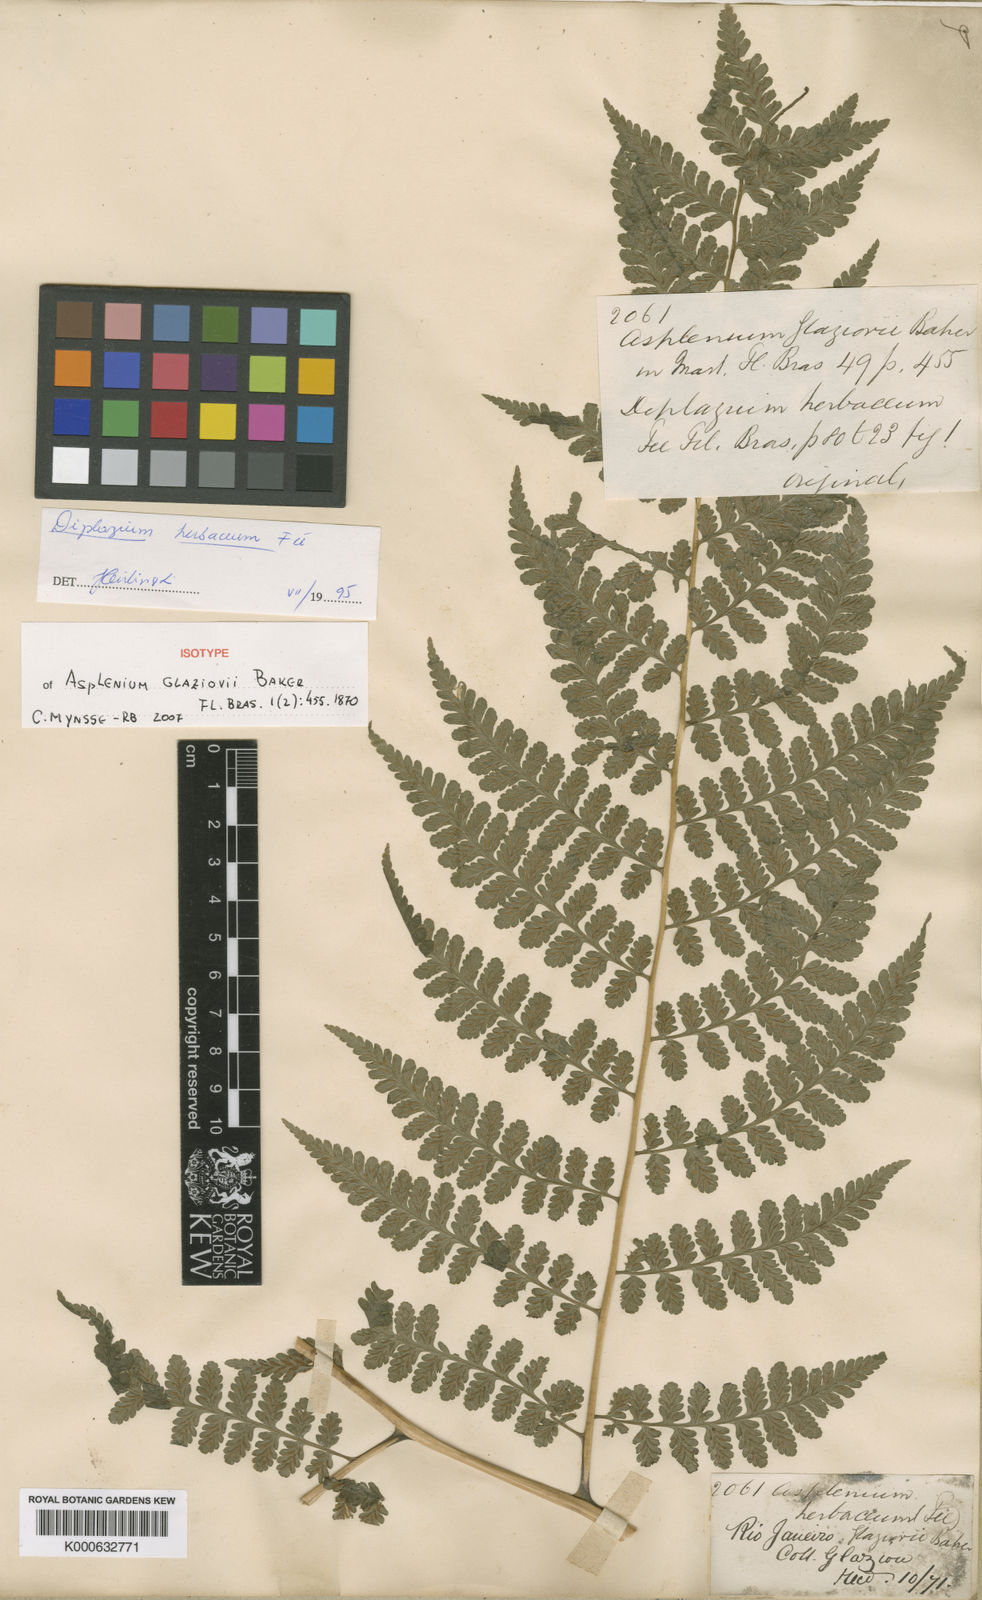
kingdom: Plantae
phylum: Tracheophyta
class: Polypodiopsida
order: Polypodiales
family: Athyriaceae
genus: Diplazium
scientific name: Diplazium
